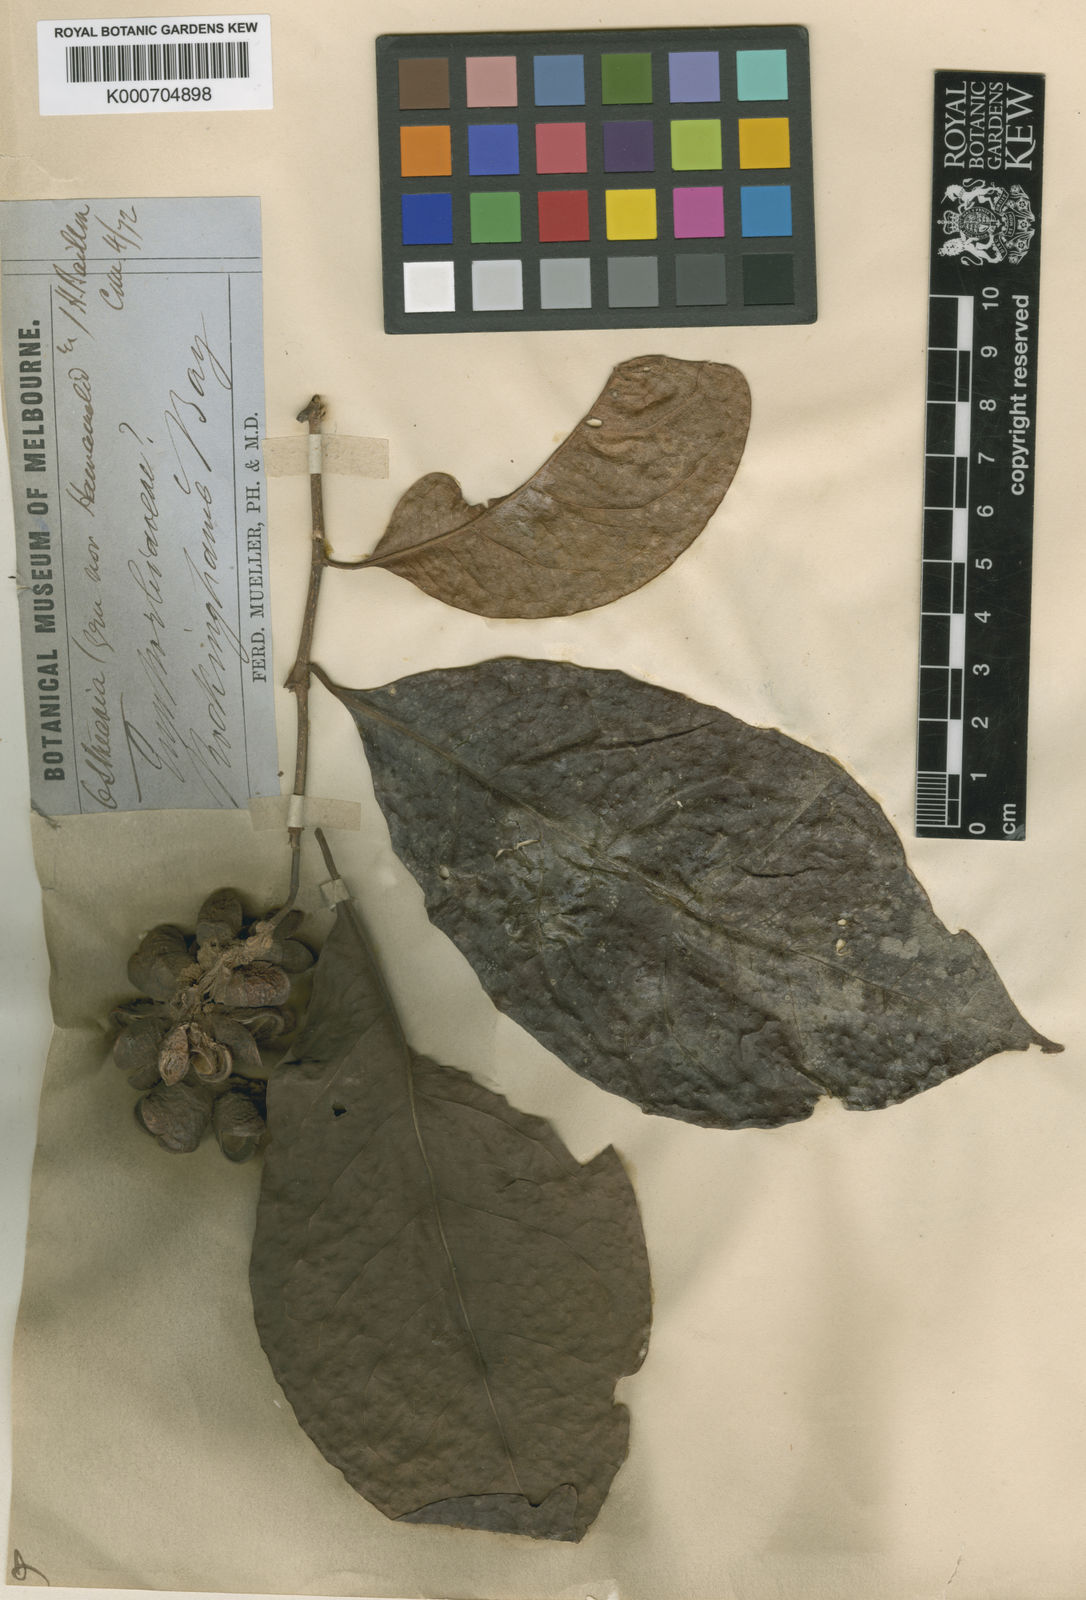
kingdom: Plantae
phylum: Tracheophyta
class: Magnoliopsida
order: Saxifragales
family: Hamamelidaceae
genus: Ostrearia
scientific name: Ostrearia australiana
